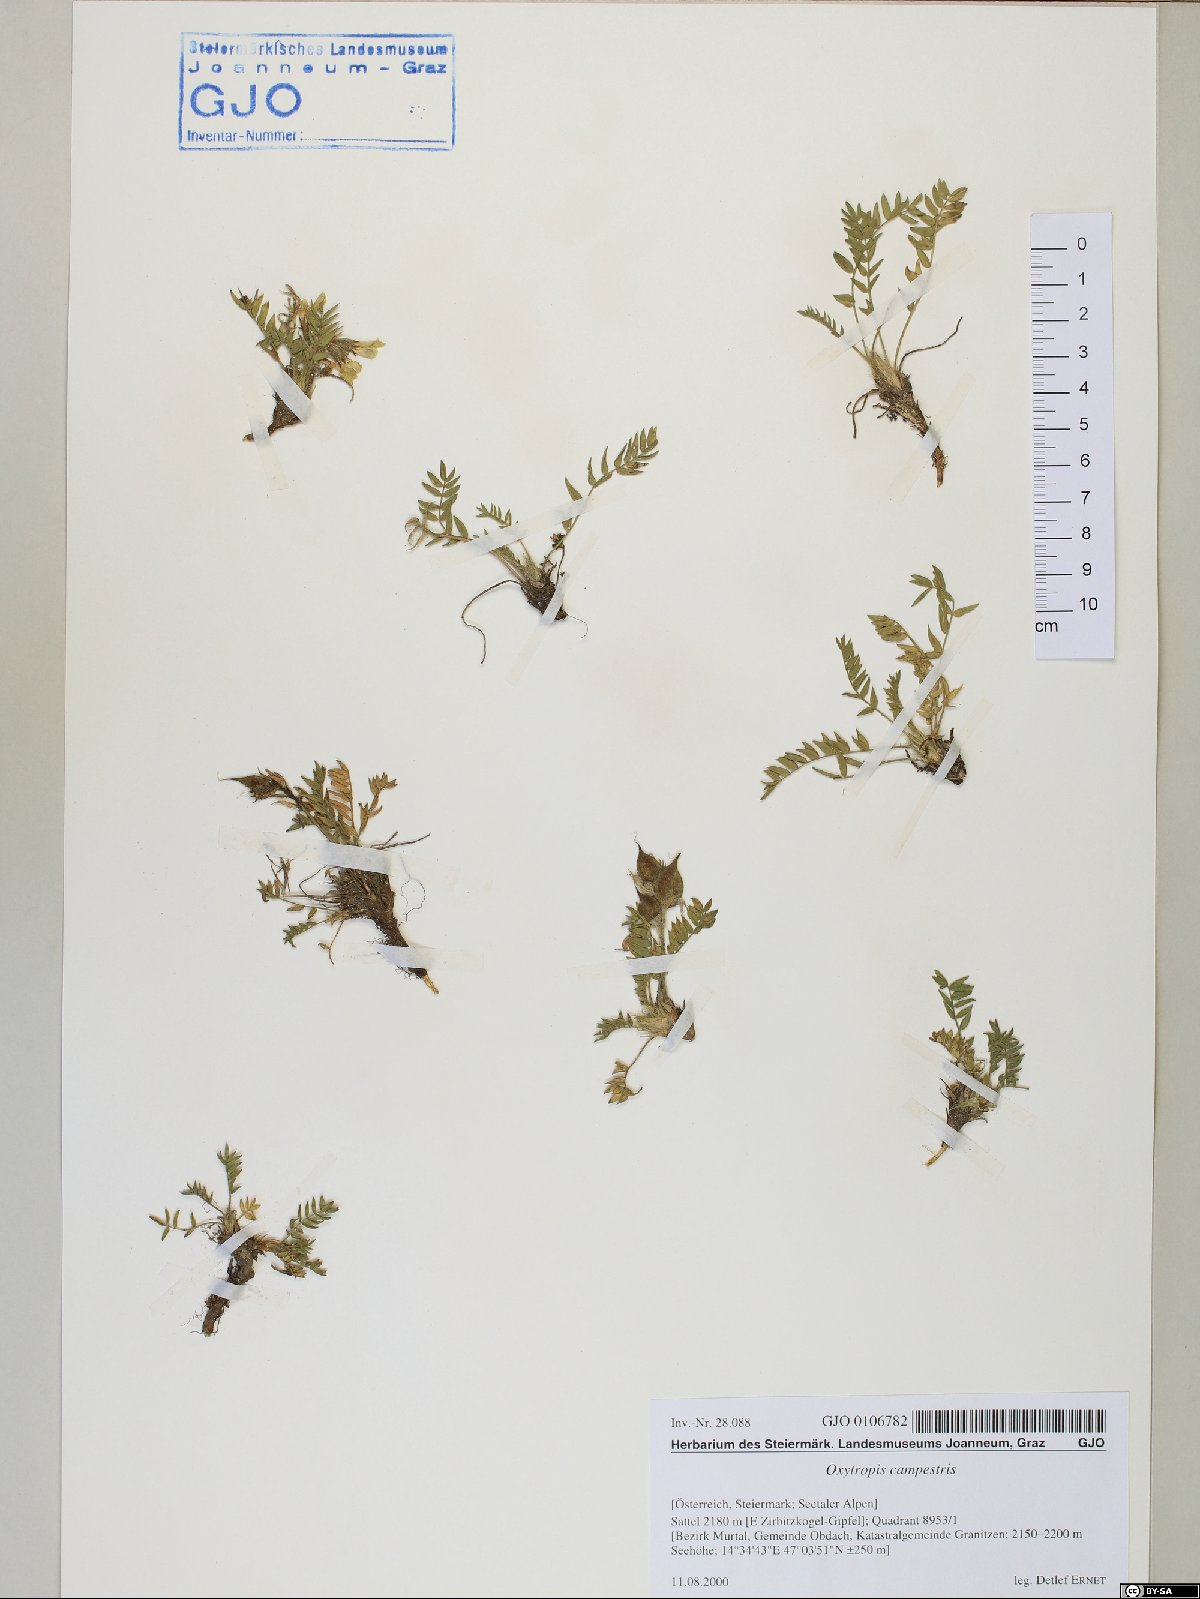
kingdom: Plantae
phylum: Tracheophyta
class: Magnoliopsida
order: Fabales
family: Fabaceae
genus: Oxytropis
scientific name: Oxytropis campestris
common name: Field locoweed
